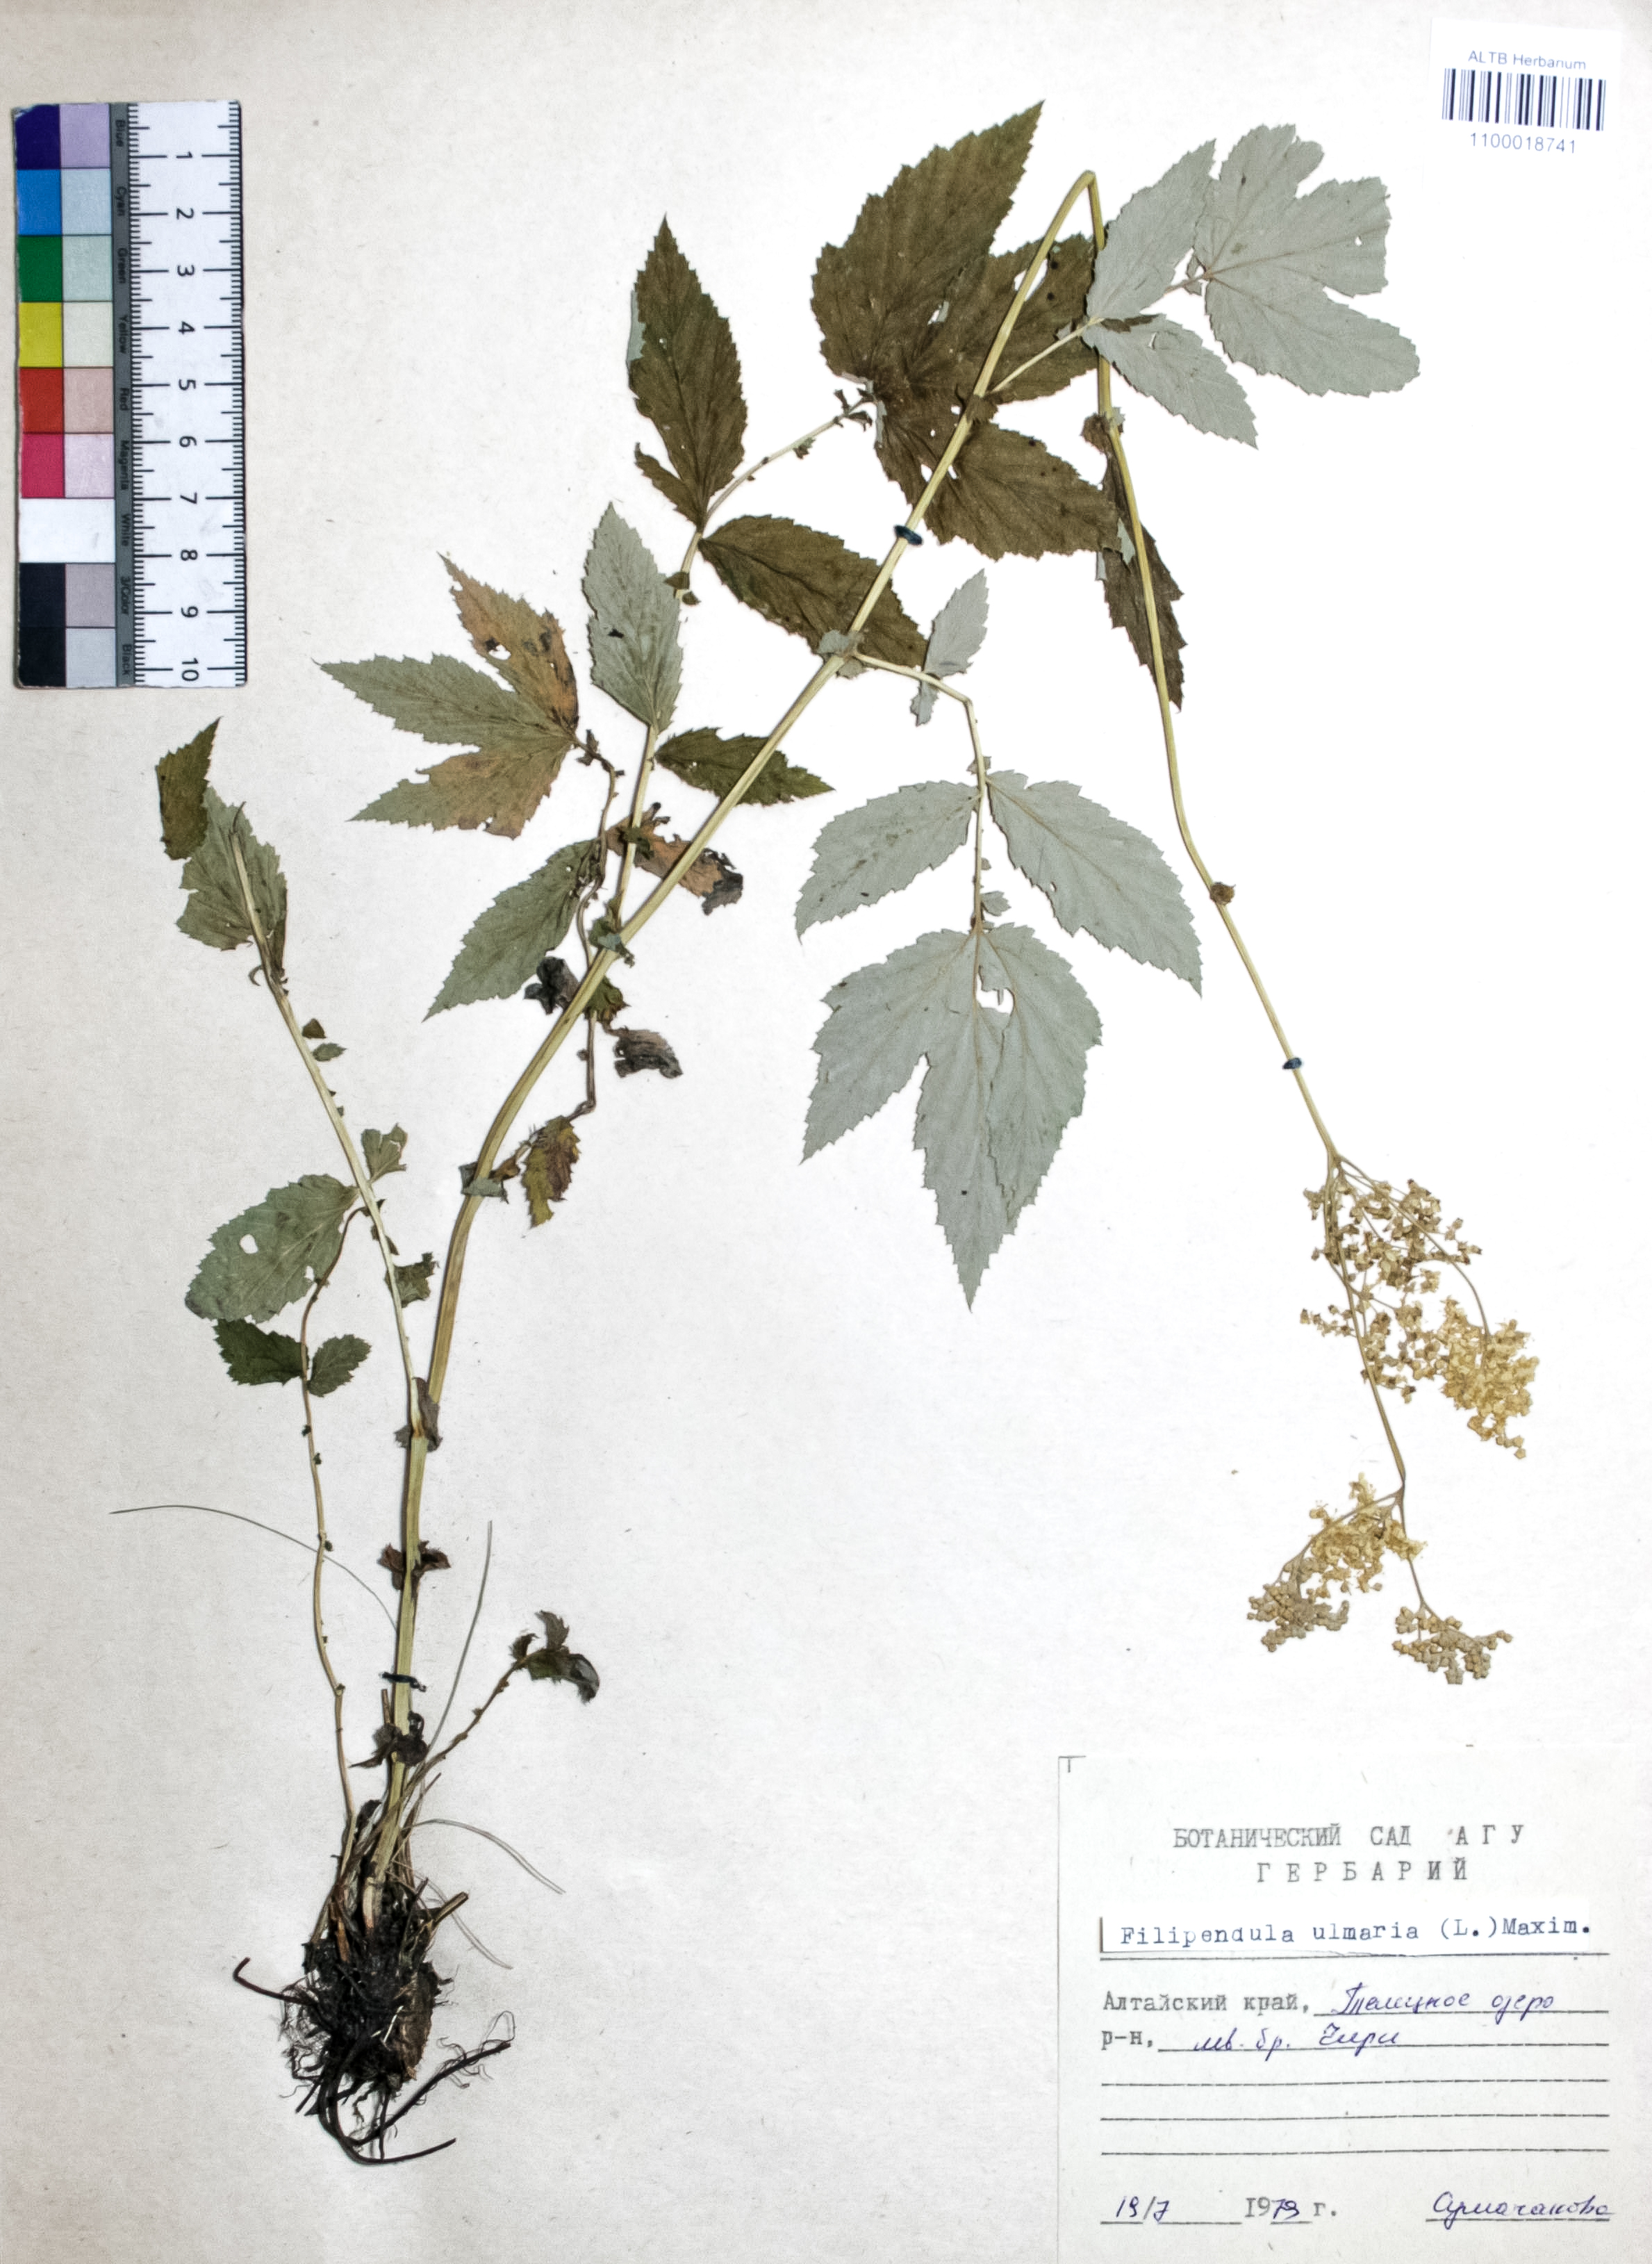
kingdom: Plantae
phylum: Tracheophyta
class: Magnoliopsida
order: Rosales
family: Rosaceae
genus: Filipendula
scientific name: Filipendula ulmaria
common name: Meadowsweet
